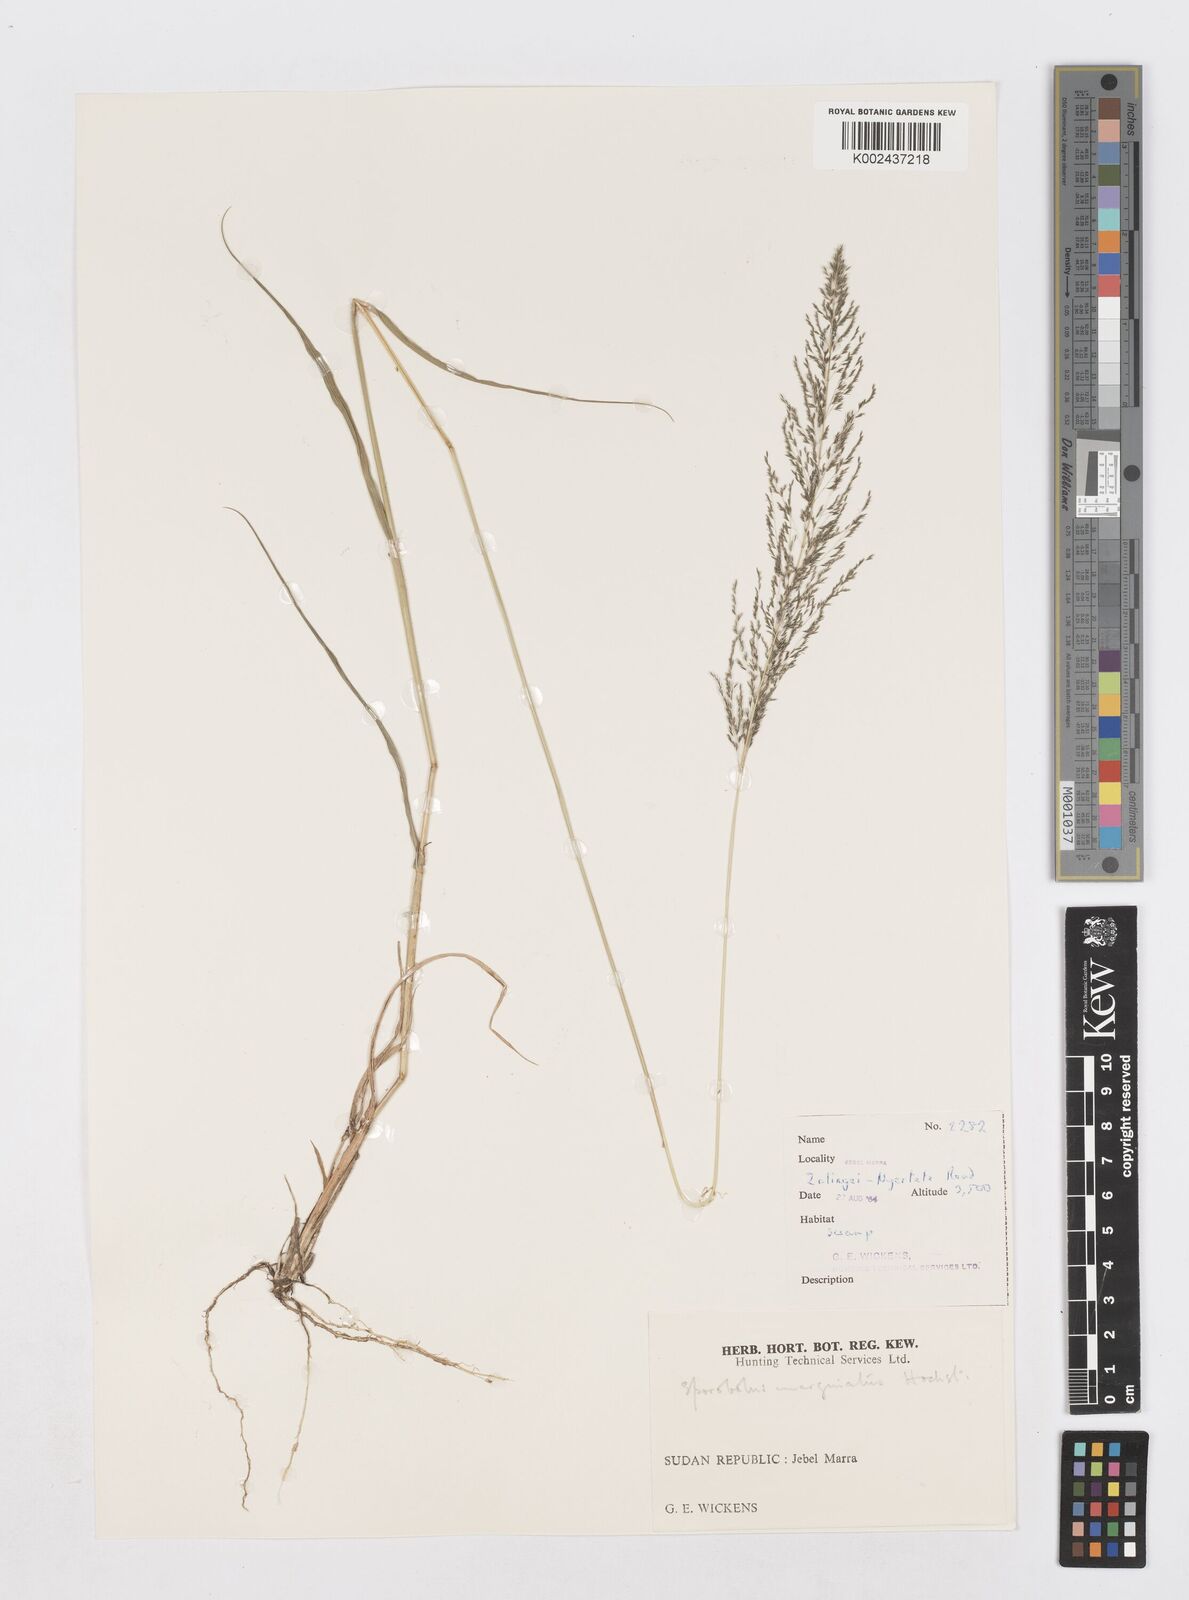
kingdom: Plantae
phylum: Tracheophyta
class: Liliopsida
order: Poales
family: Poaceae
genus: Sporobolus
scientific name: Sporobolus ioclados
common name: Pan dropseed
